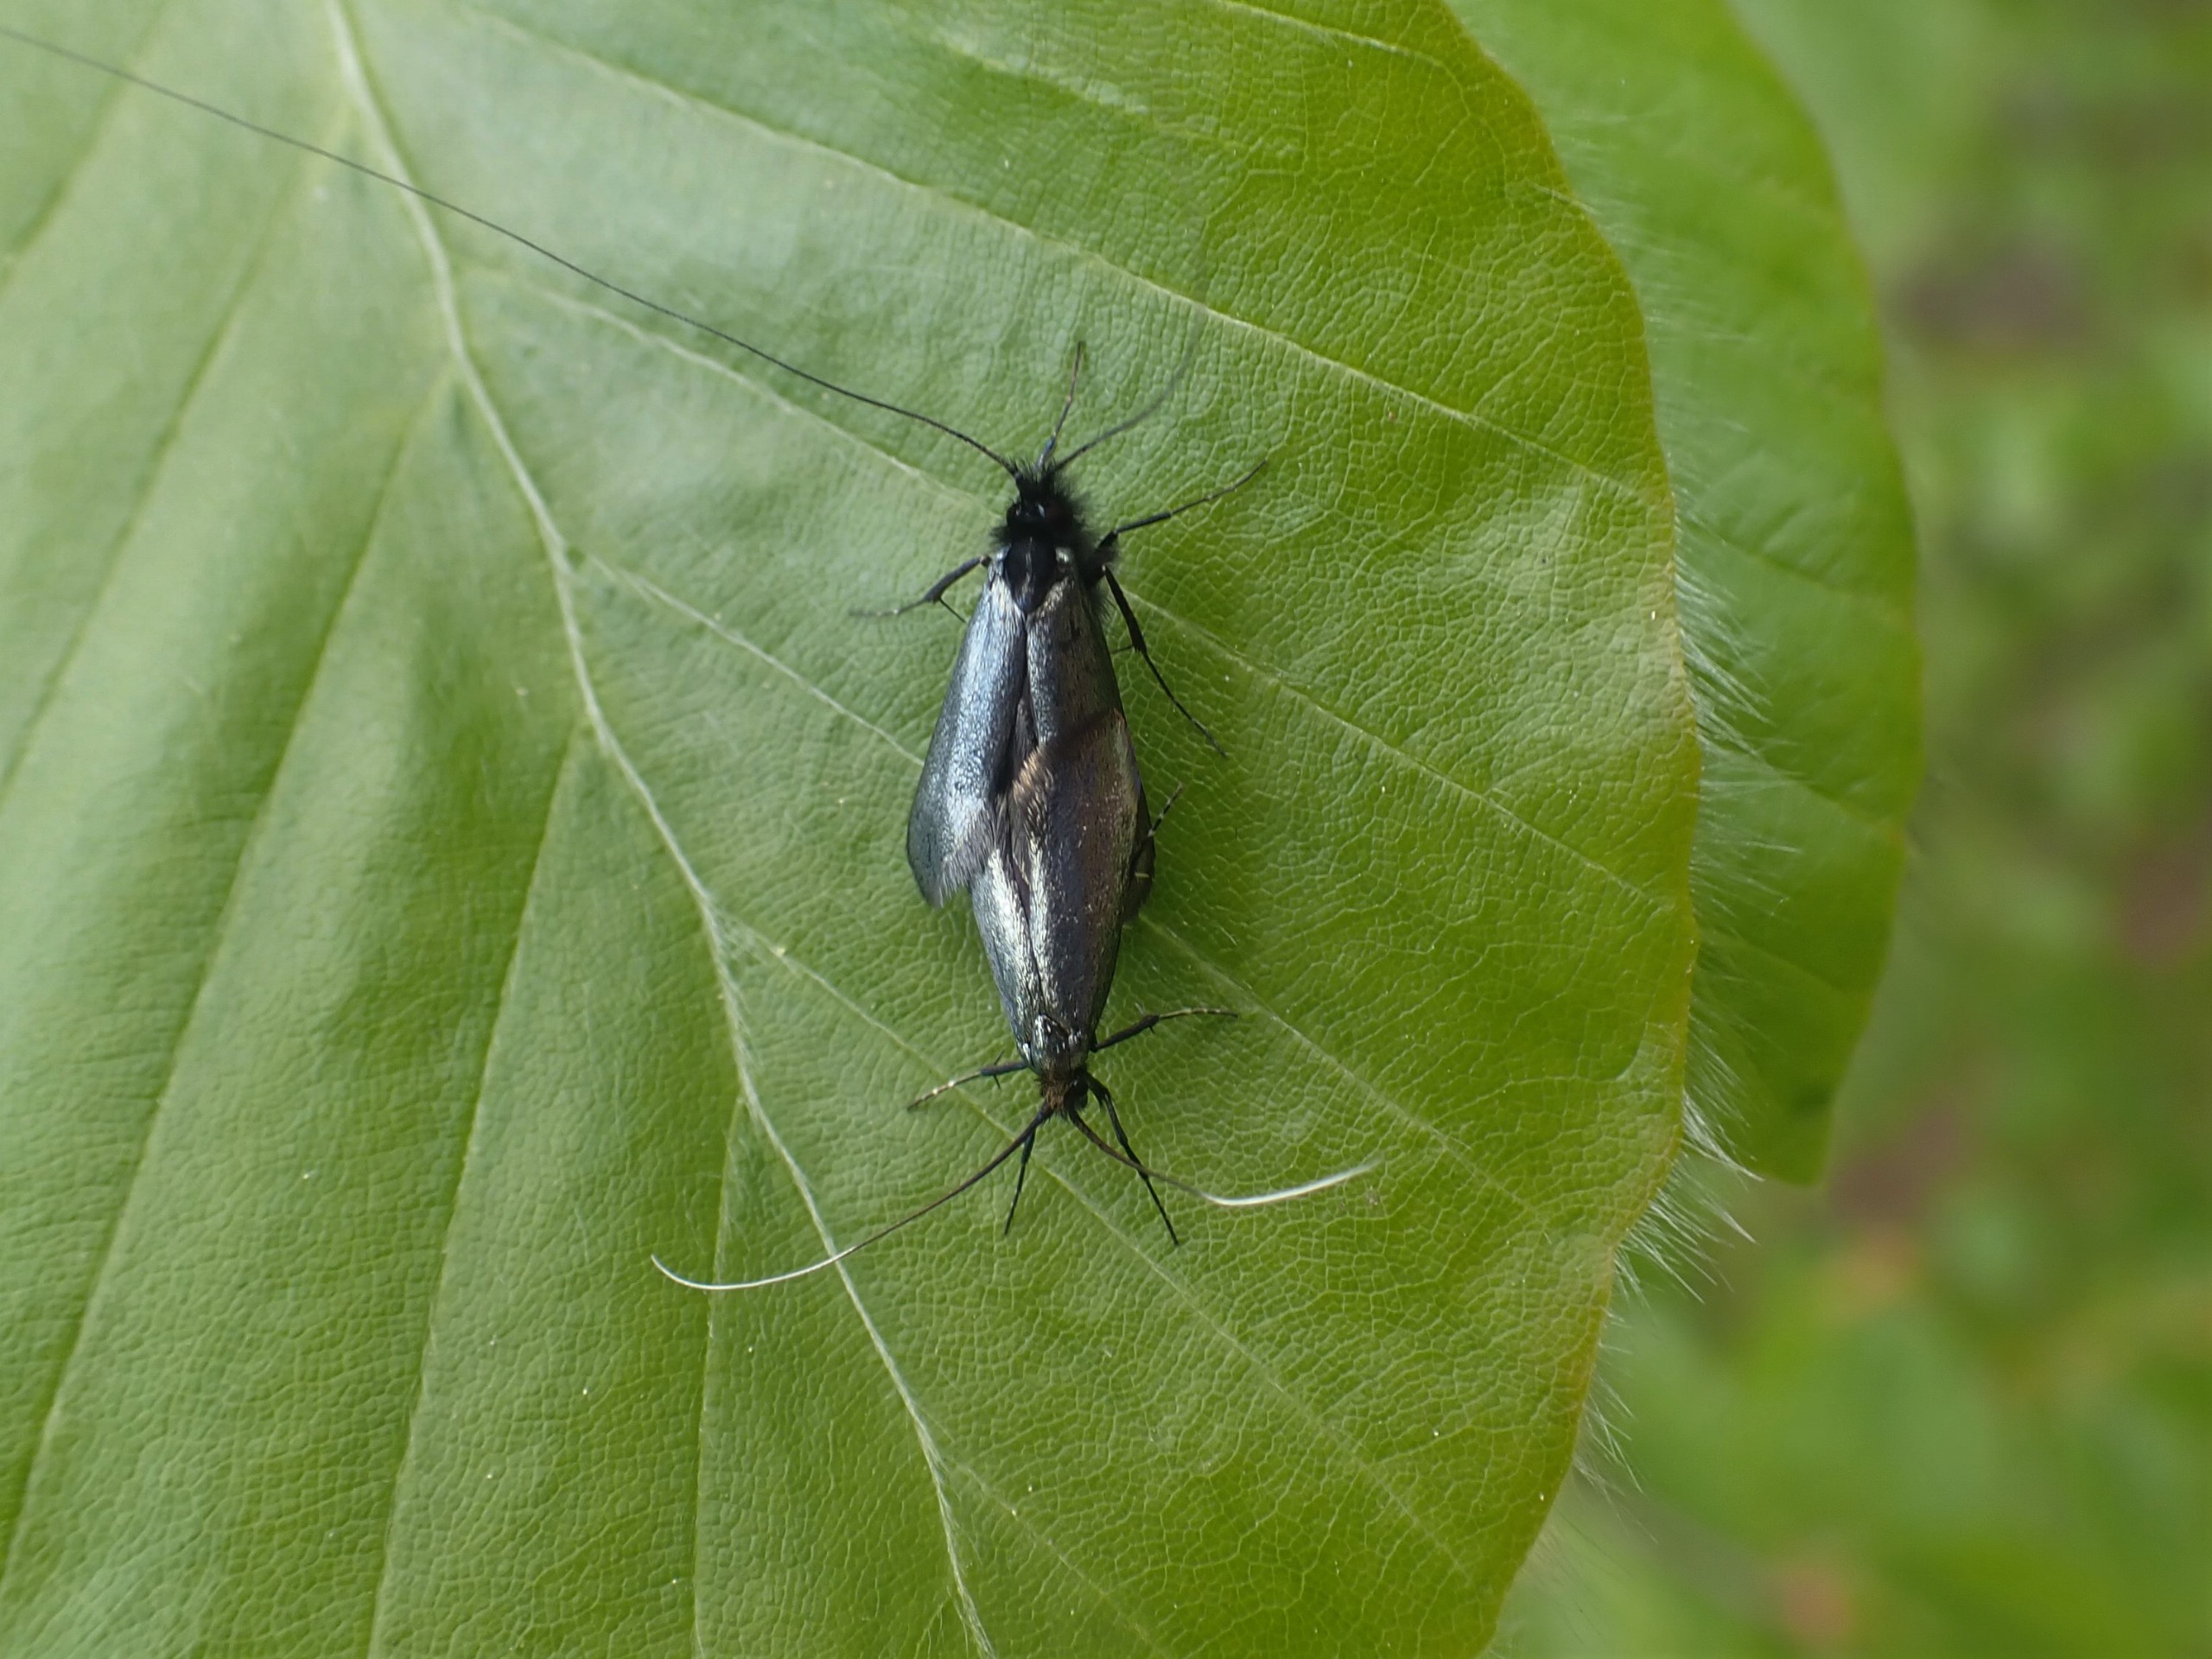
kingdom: Animalia
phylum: Arthropoda
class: Insecta
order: Lepidoptera
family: Adelidae
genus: Adela
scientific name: Adela viridella
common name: Egelanghornsmøl
